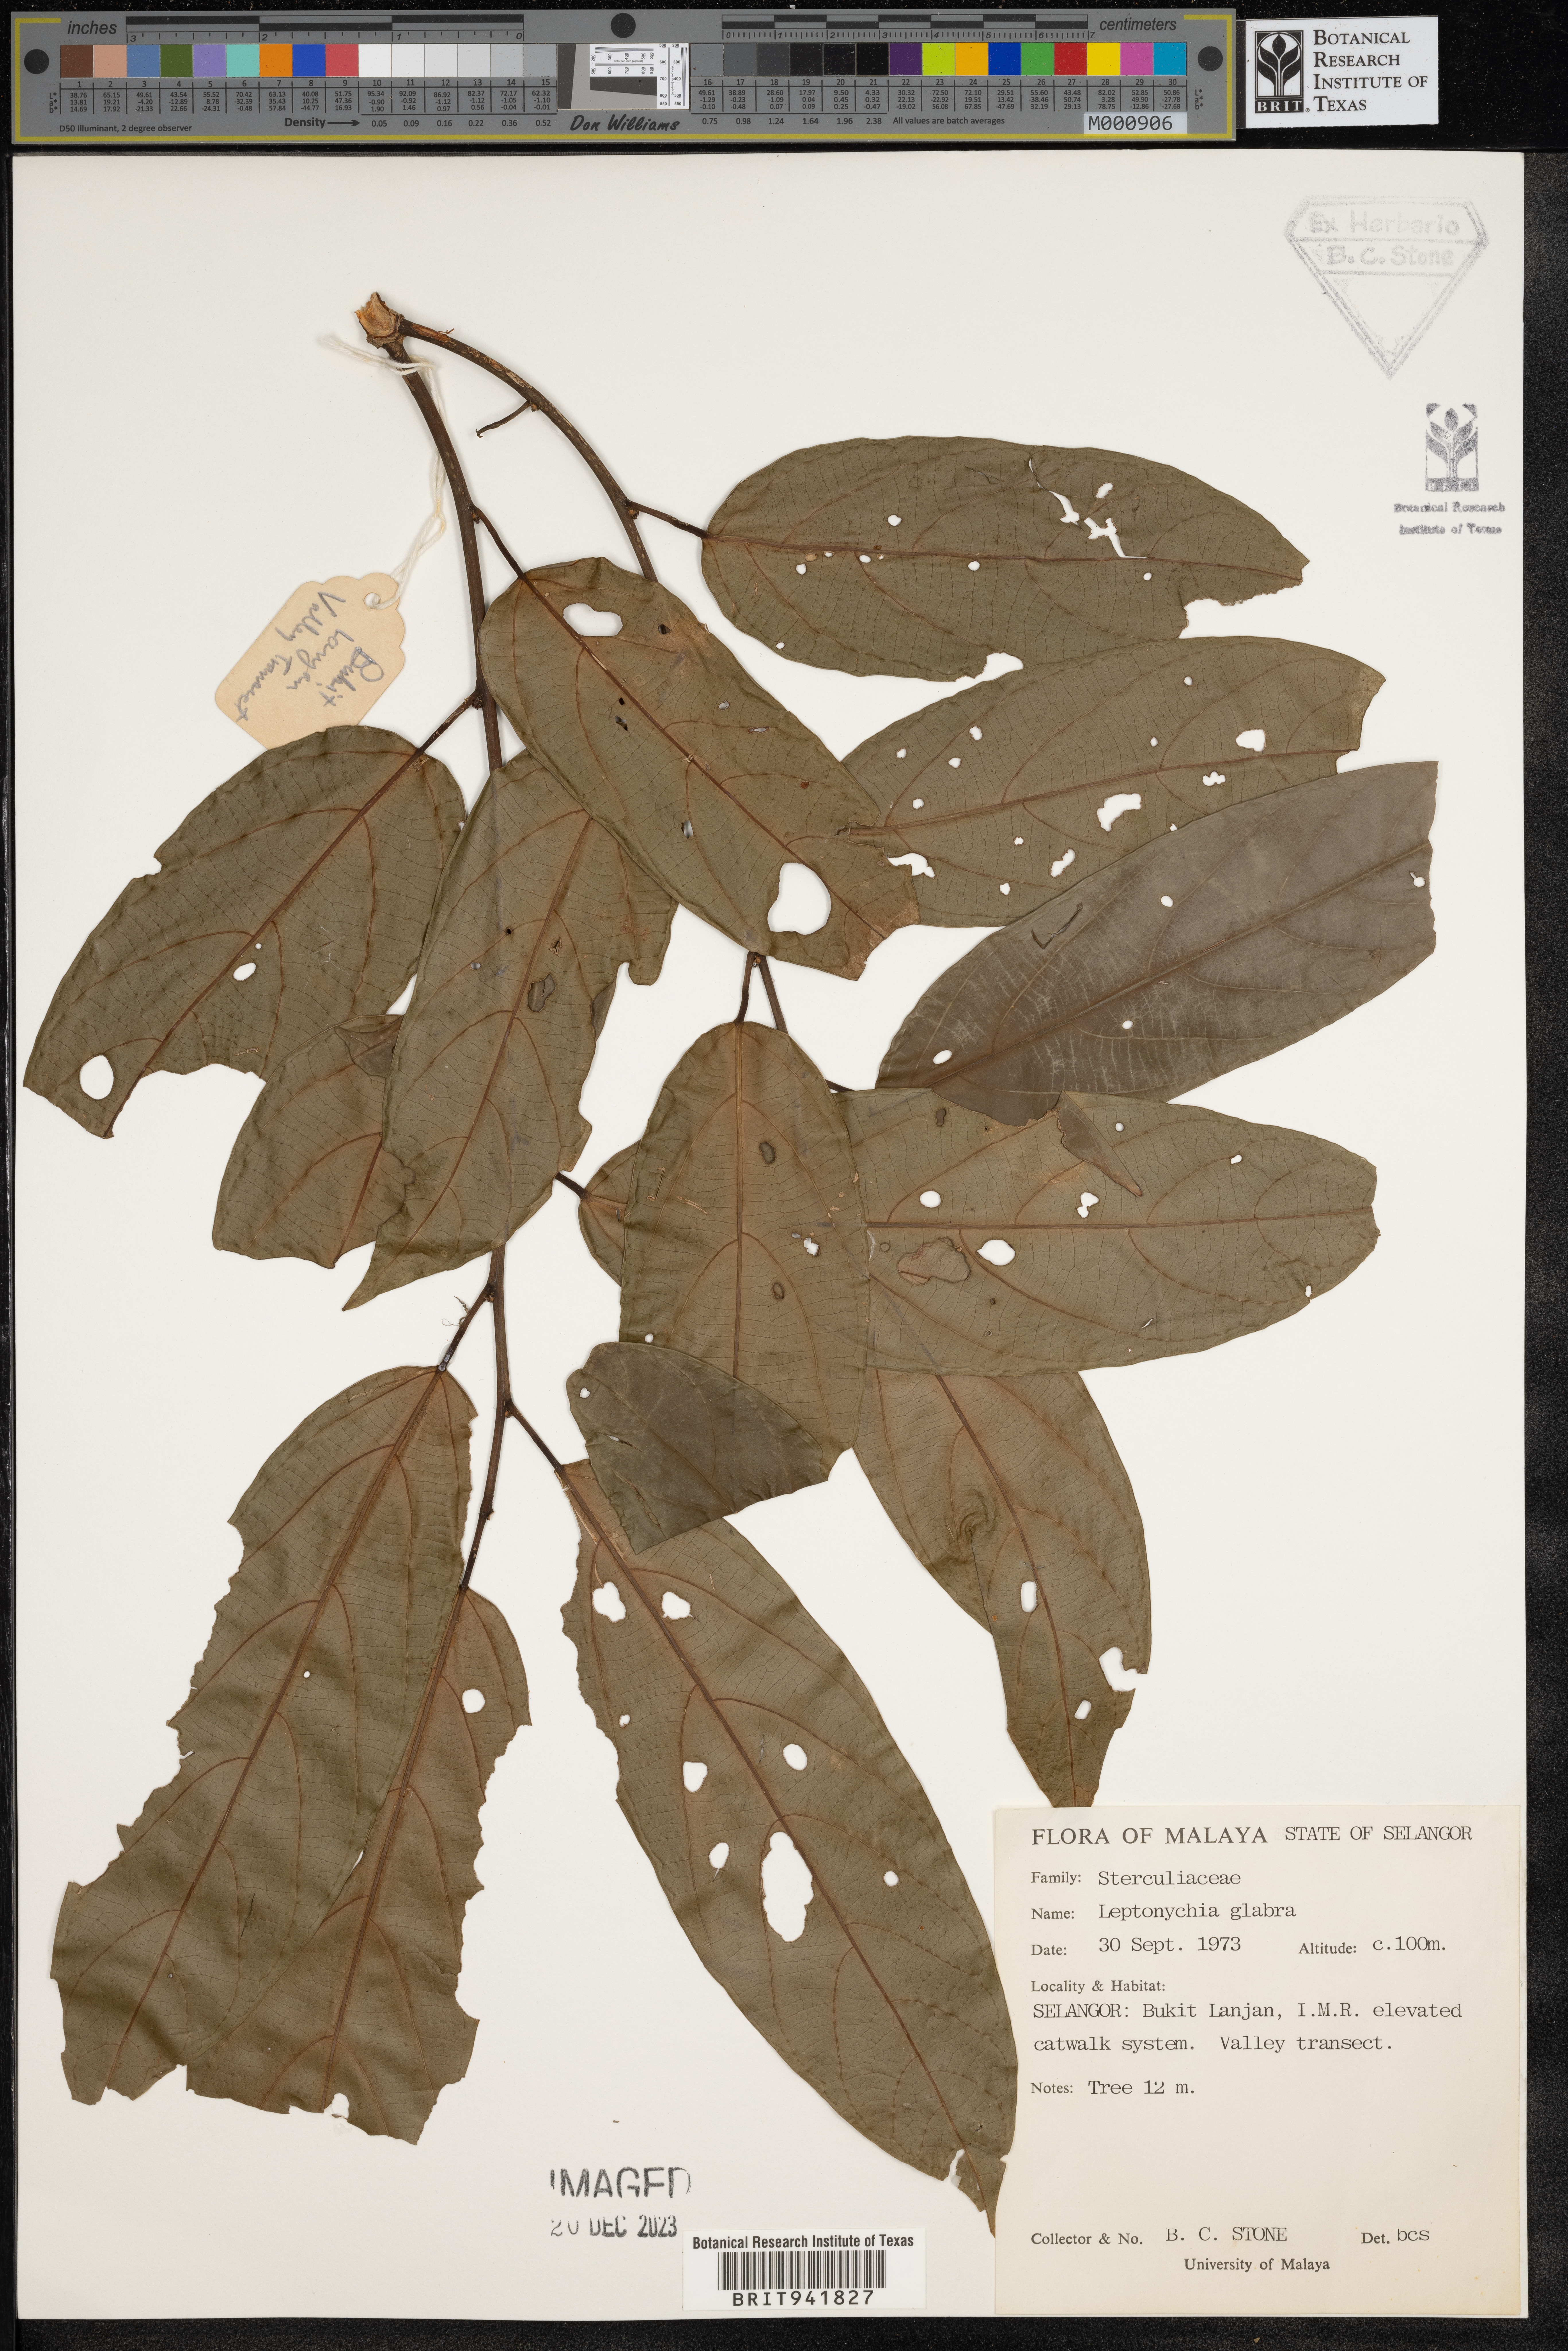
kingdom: Plantae
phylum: Tracheophyta
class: Magnoliopsida
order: Malvales
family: Malvaceae
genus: Leptonychia
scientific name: Leptonychia
